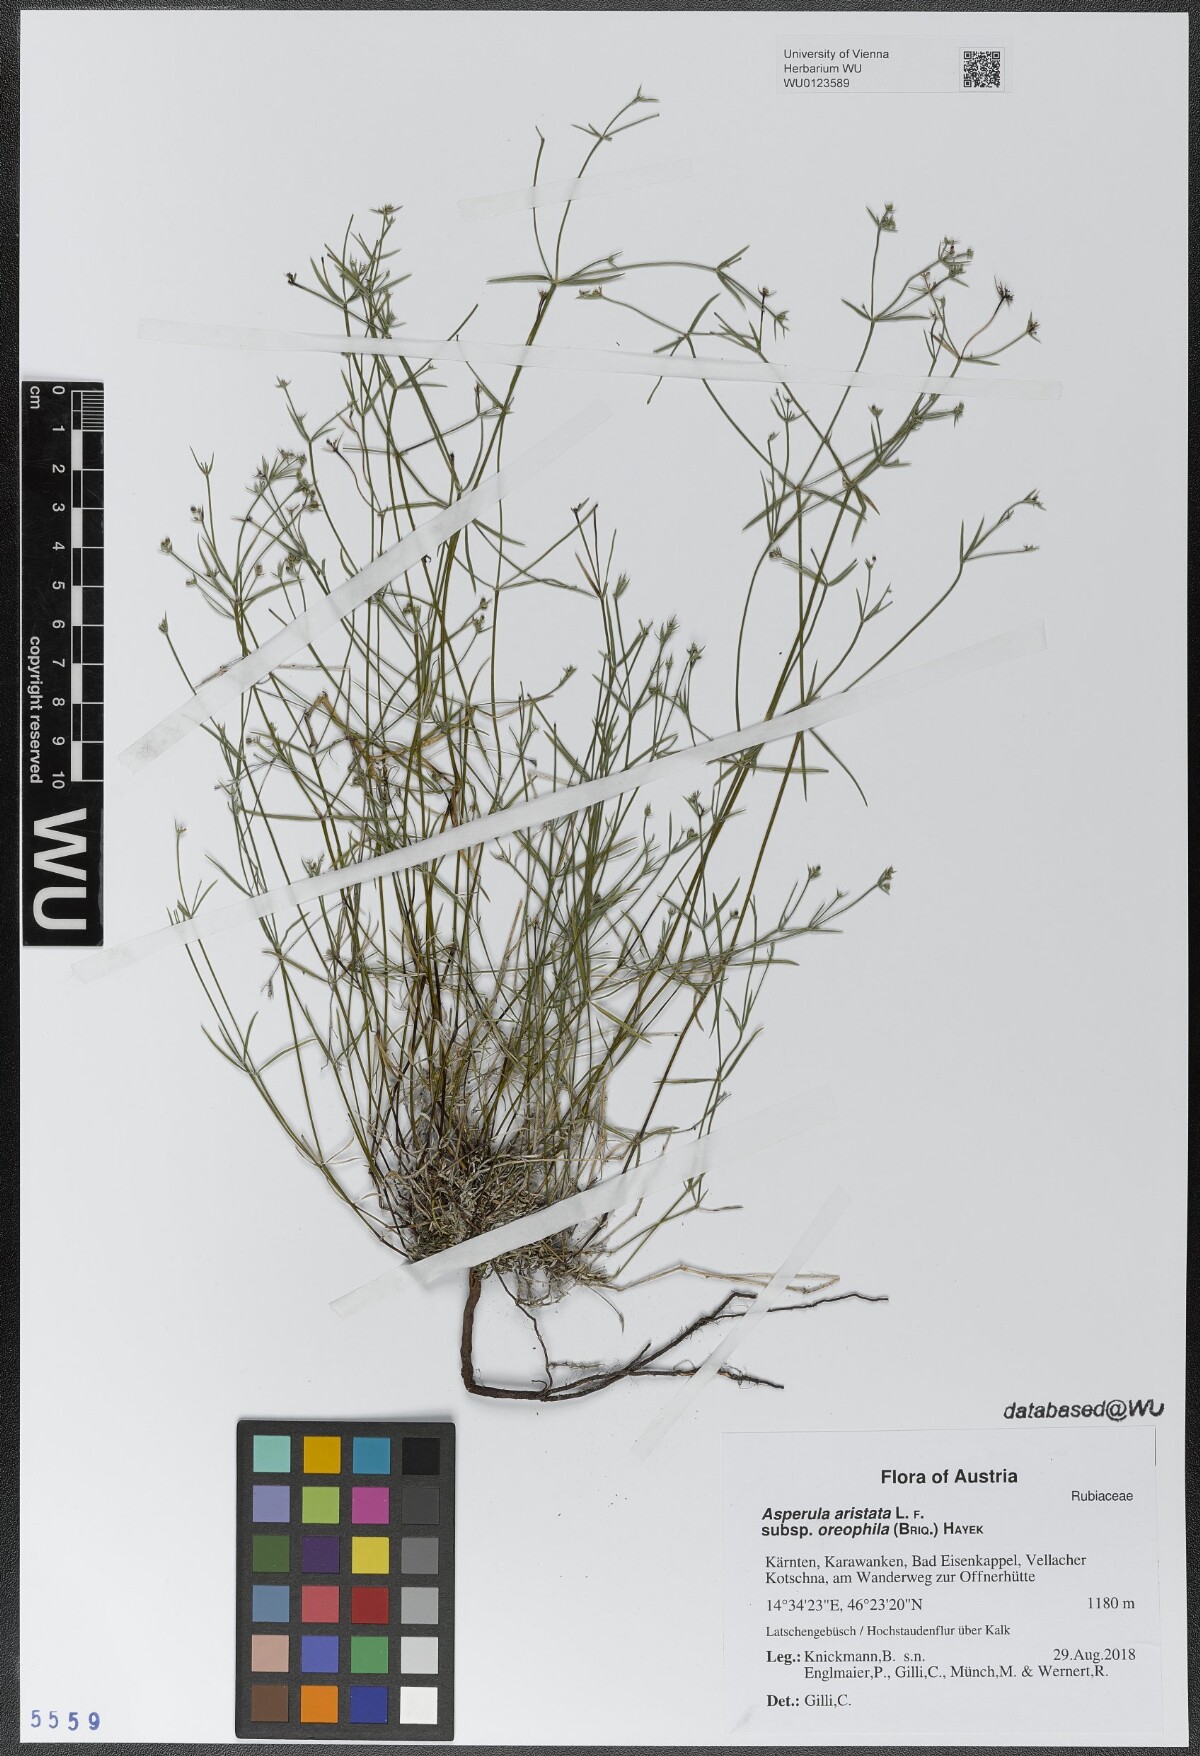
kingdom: Plantae
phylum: Tracheophyta
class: Magnoliopsida
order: Gentianales
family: Rubiaceae
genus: Cynanchica
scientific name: Cynanchica aristata
